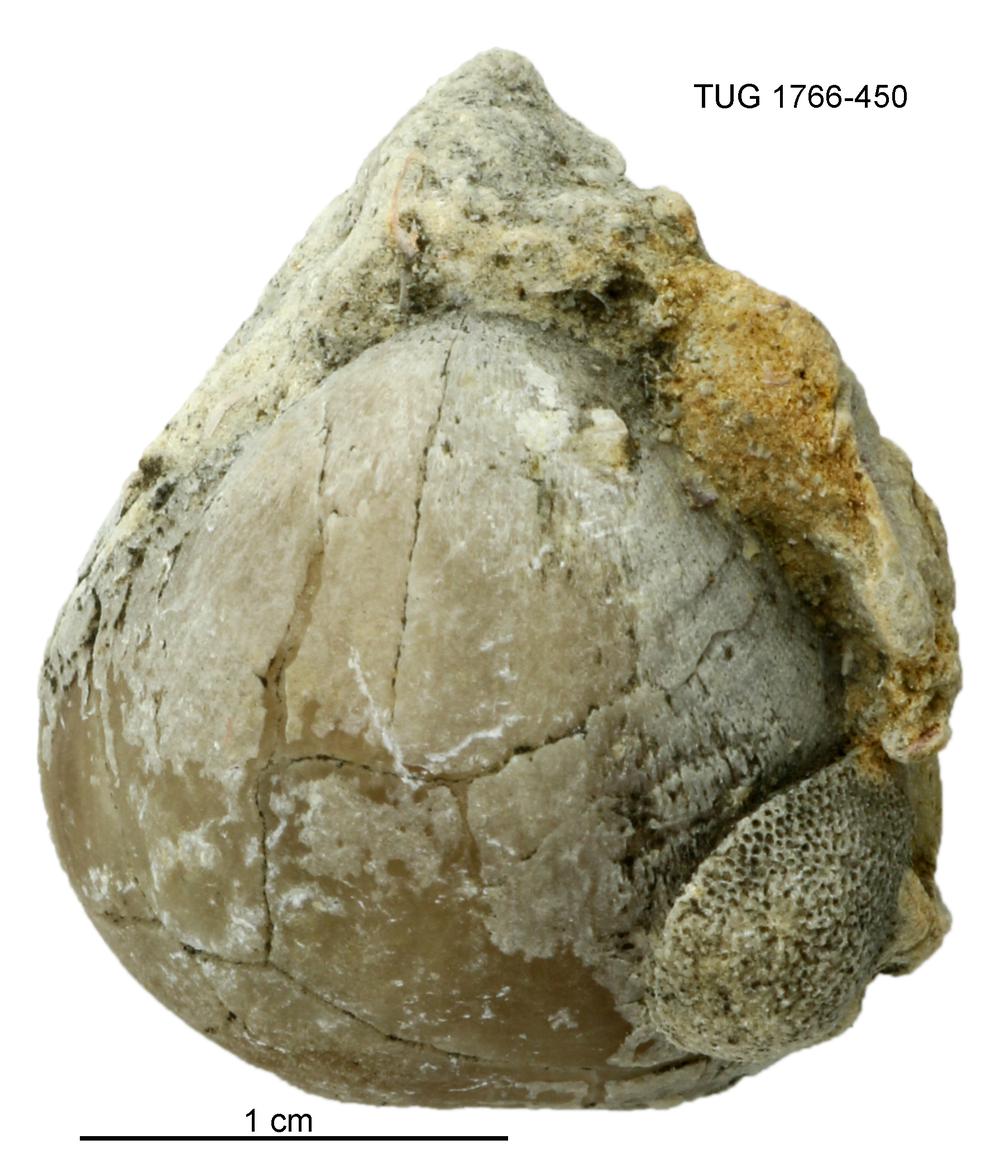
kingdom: Animalia
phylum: Brachiopoda
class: Rhynchonellata
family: Porambonitidae
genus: Porambonites
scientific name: Porambonites
